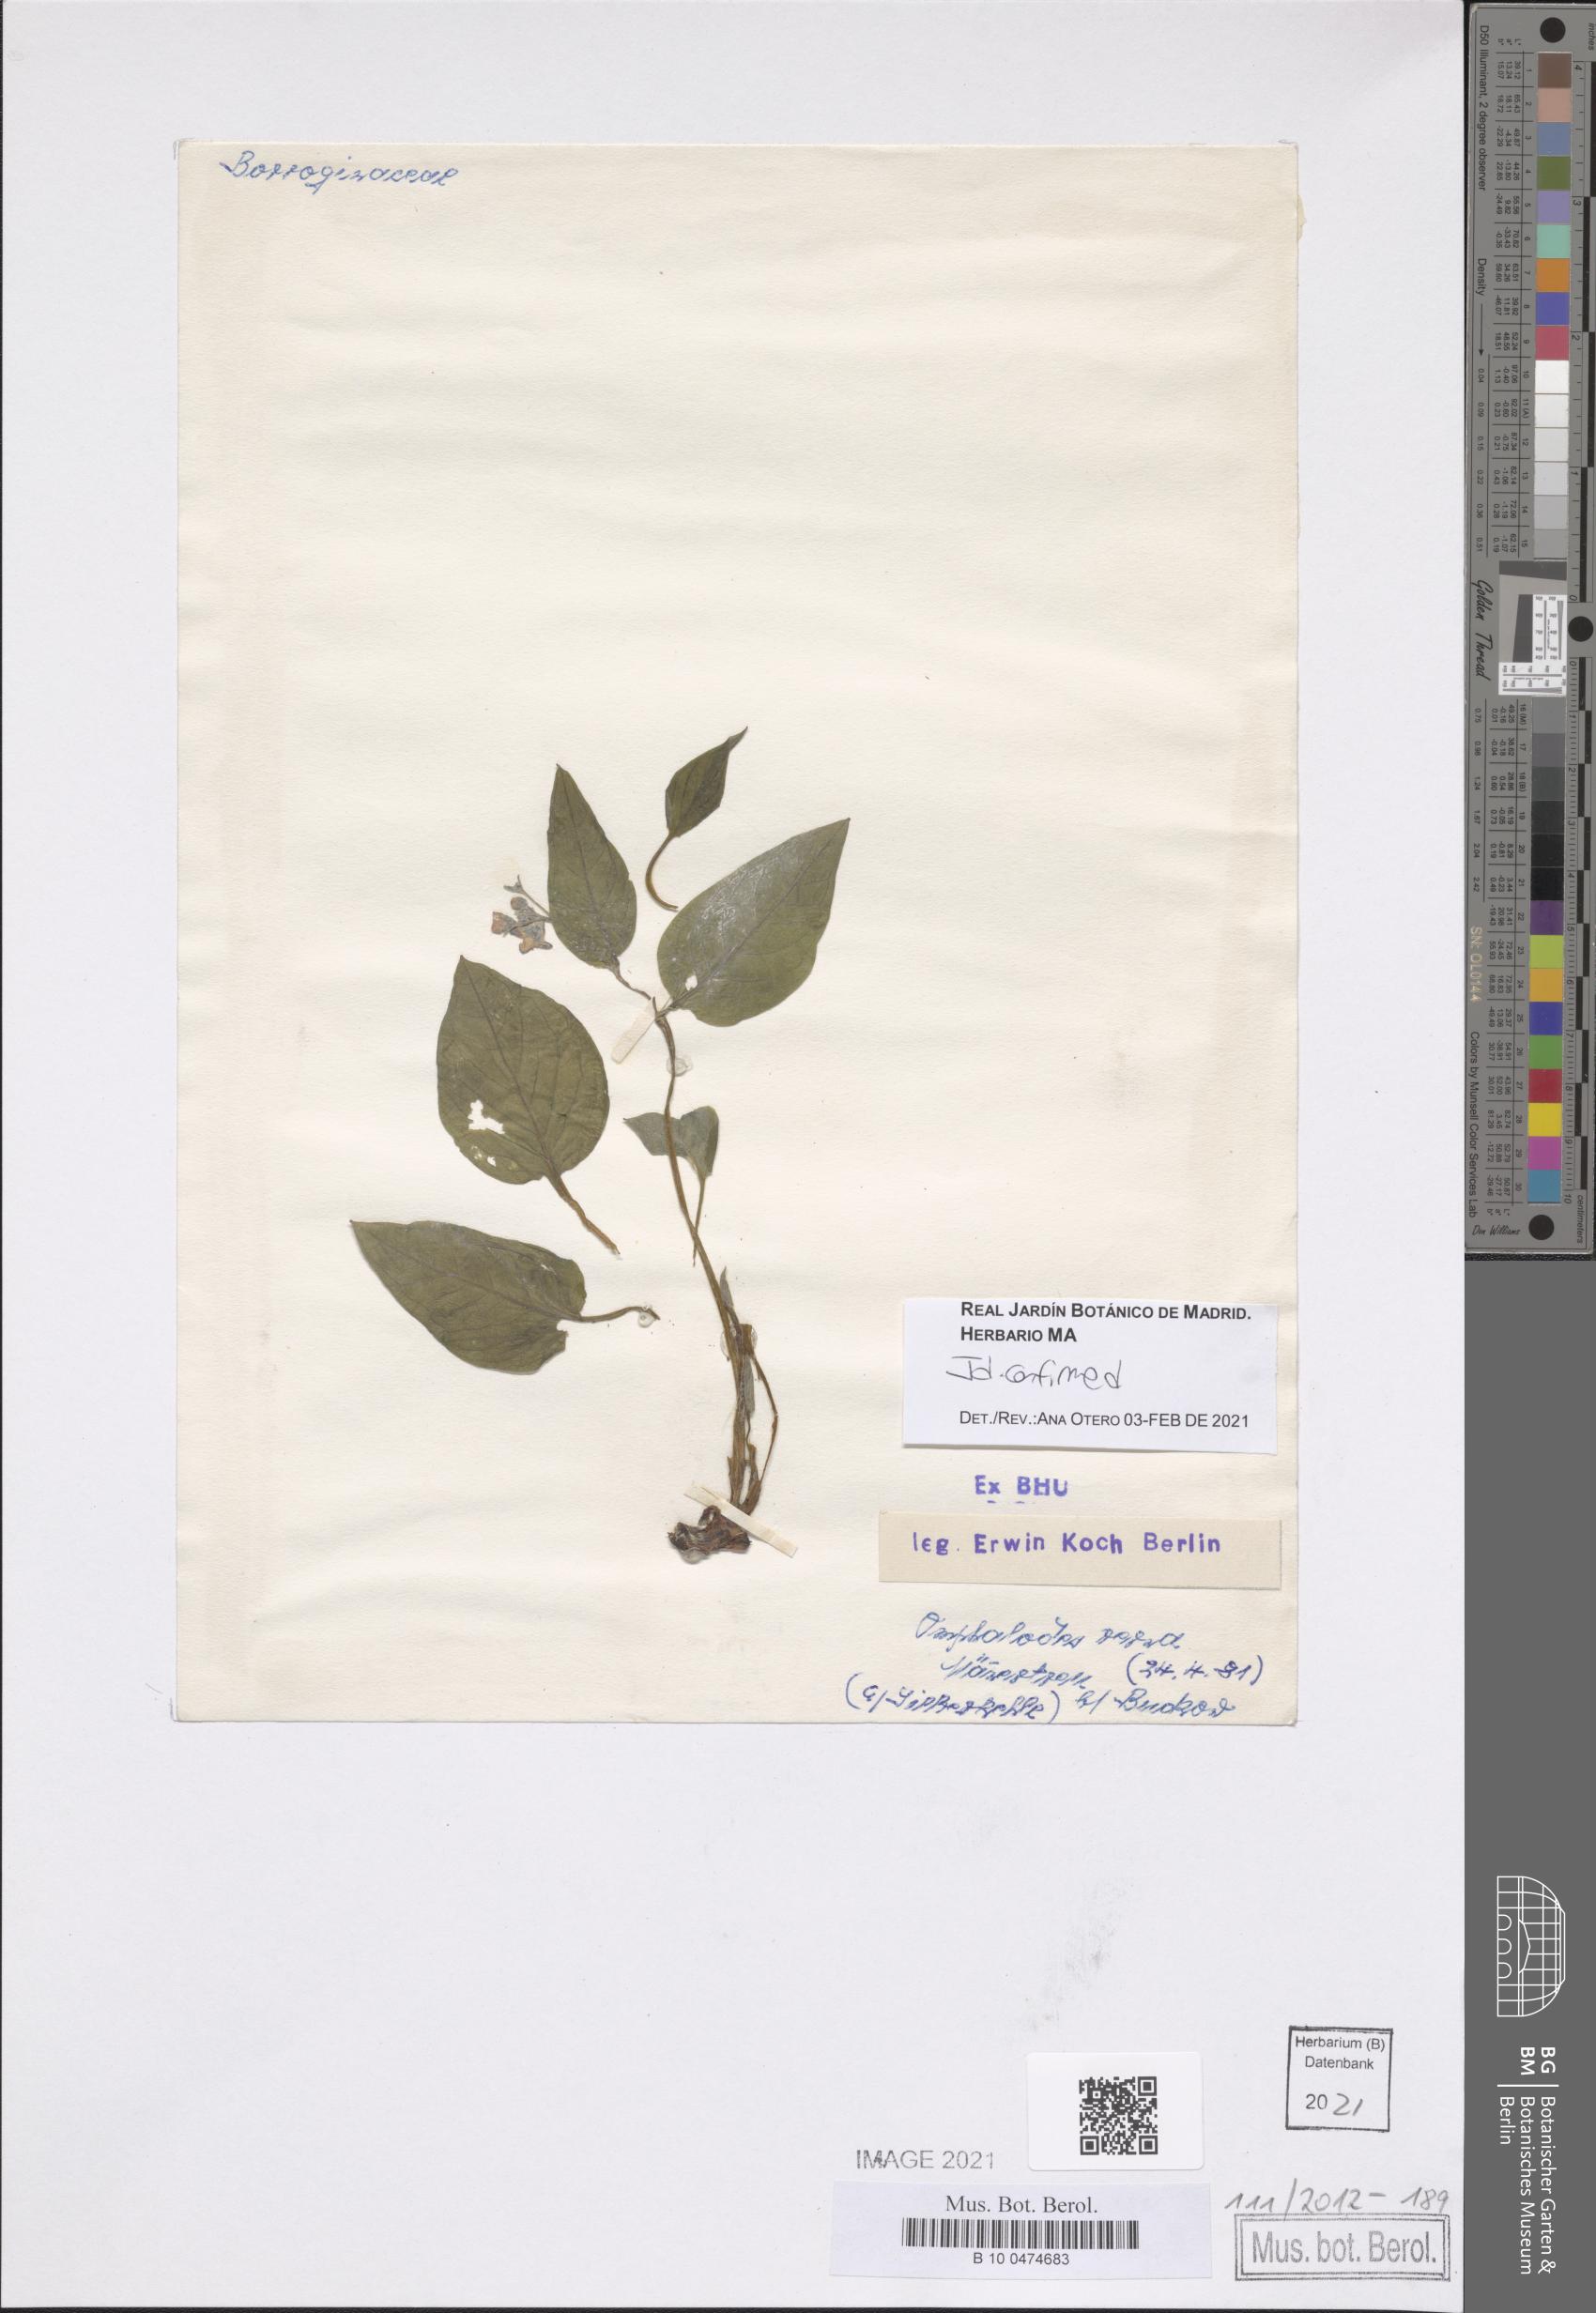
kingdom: Plantae
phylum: Tracheophyta
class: Magnoliopsida
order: Boraginales
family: Boraginaceae
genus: Omphalodes
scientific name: Omphalodes verna
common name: Blue-eyed-mary
